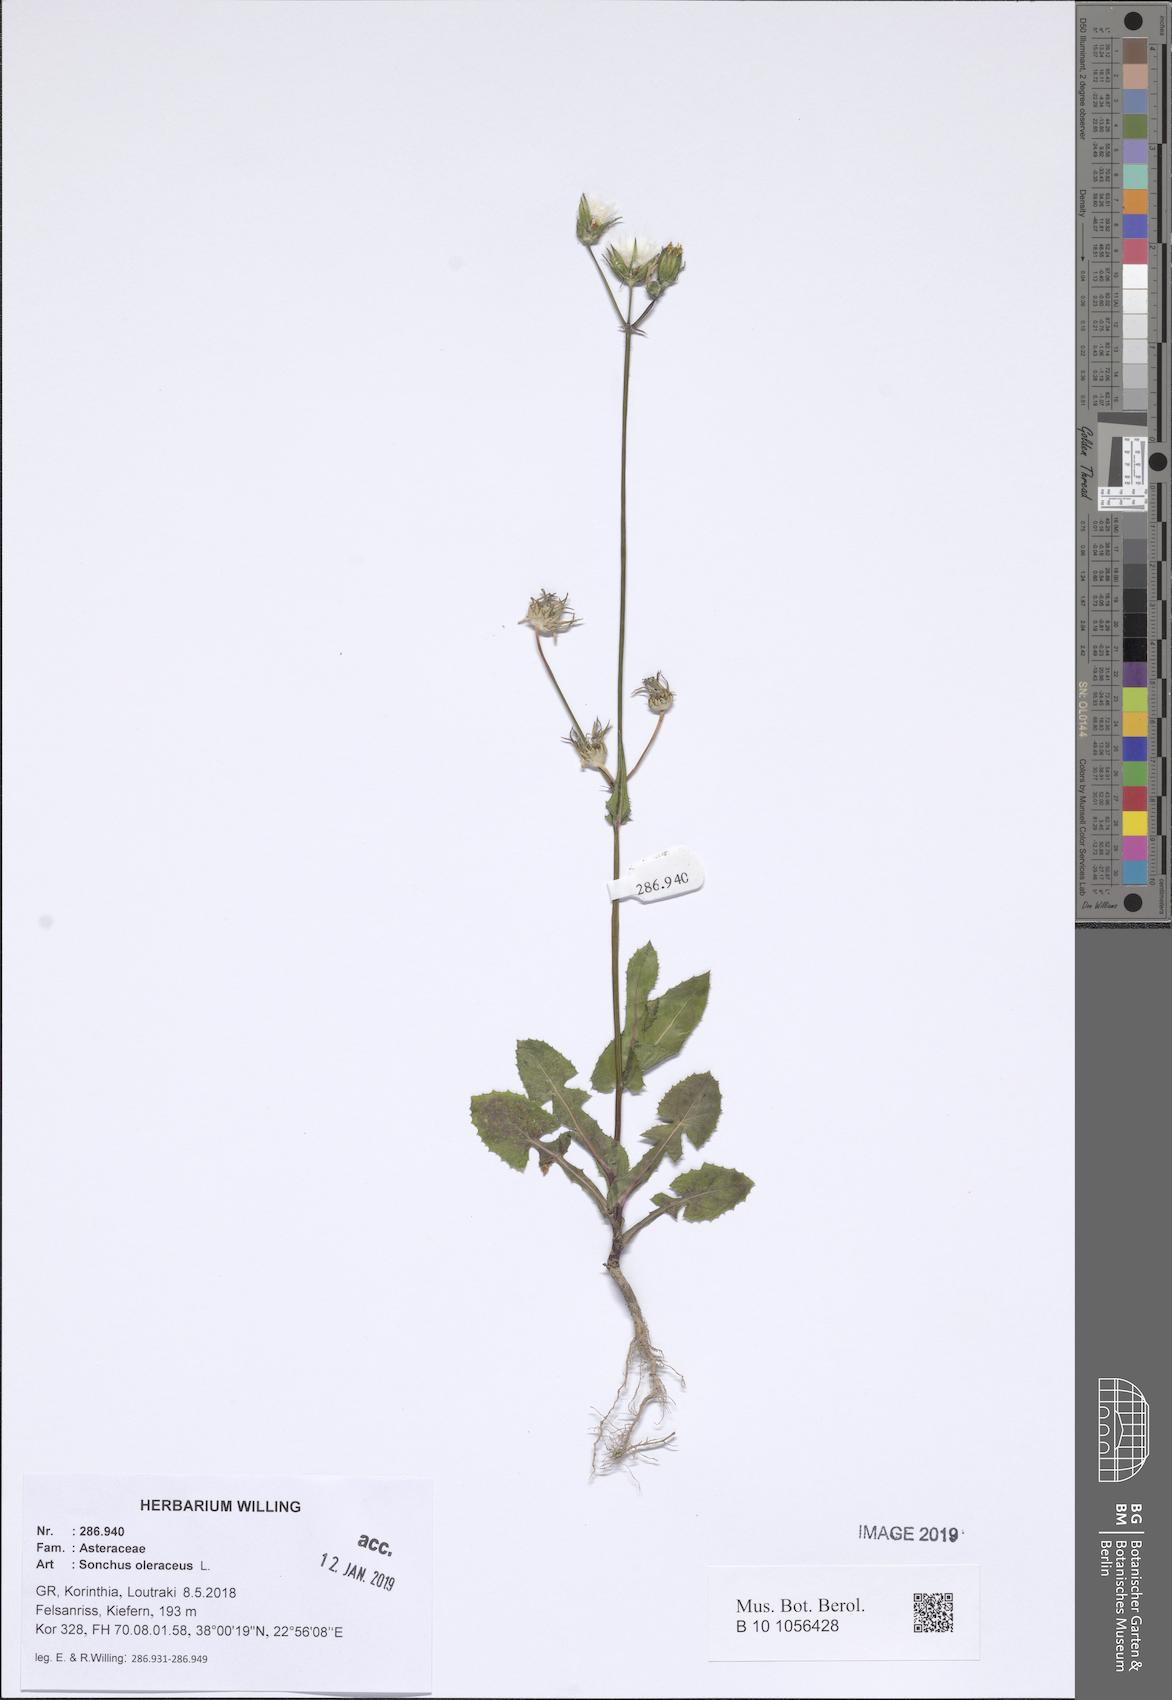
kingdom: Plantae
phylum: Tracheophyta
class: Magnoliopsida
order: Asterales
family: Asteraceae
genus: Sonchus
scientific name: Sonchus oleraceus
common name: Common sowthistle
